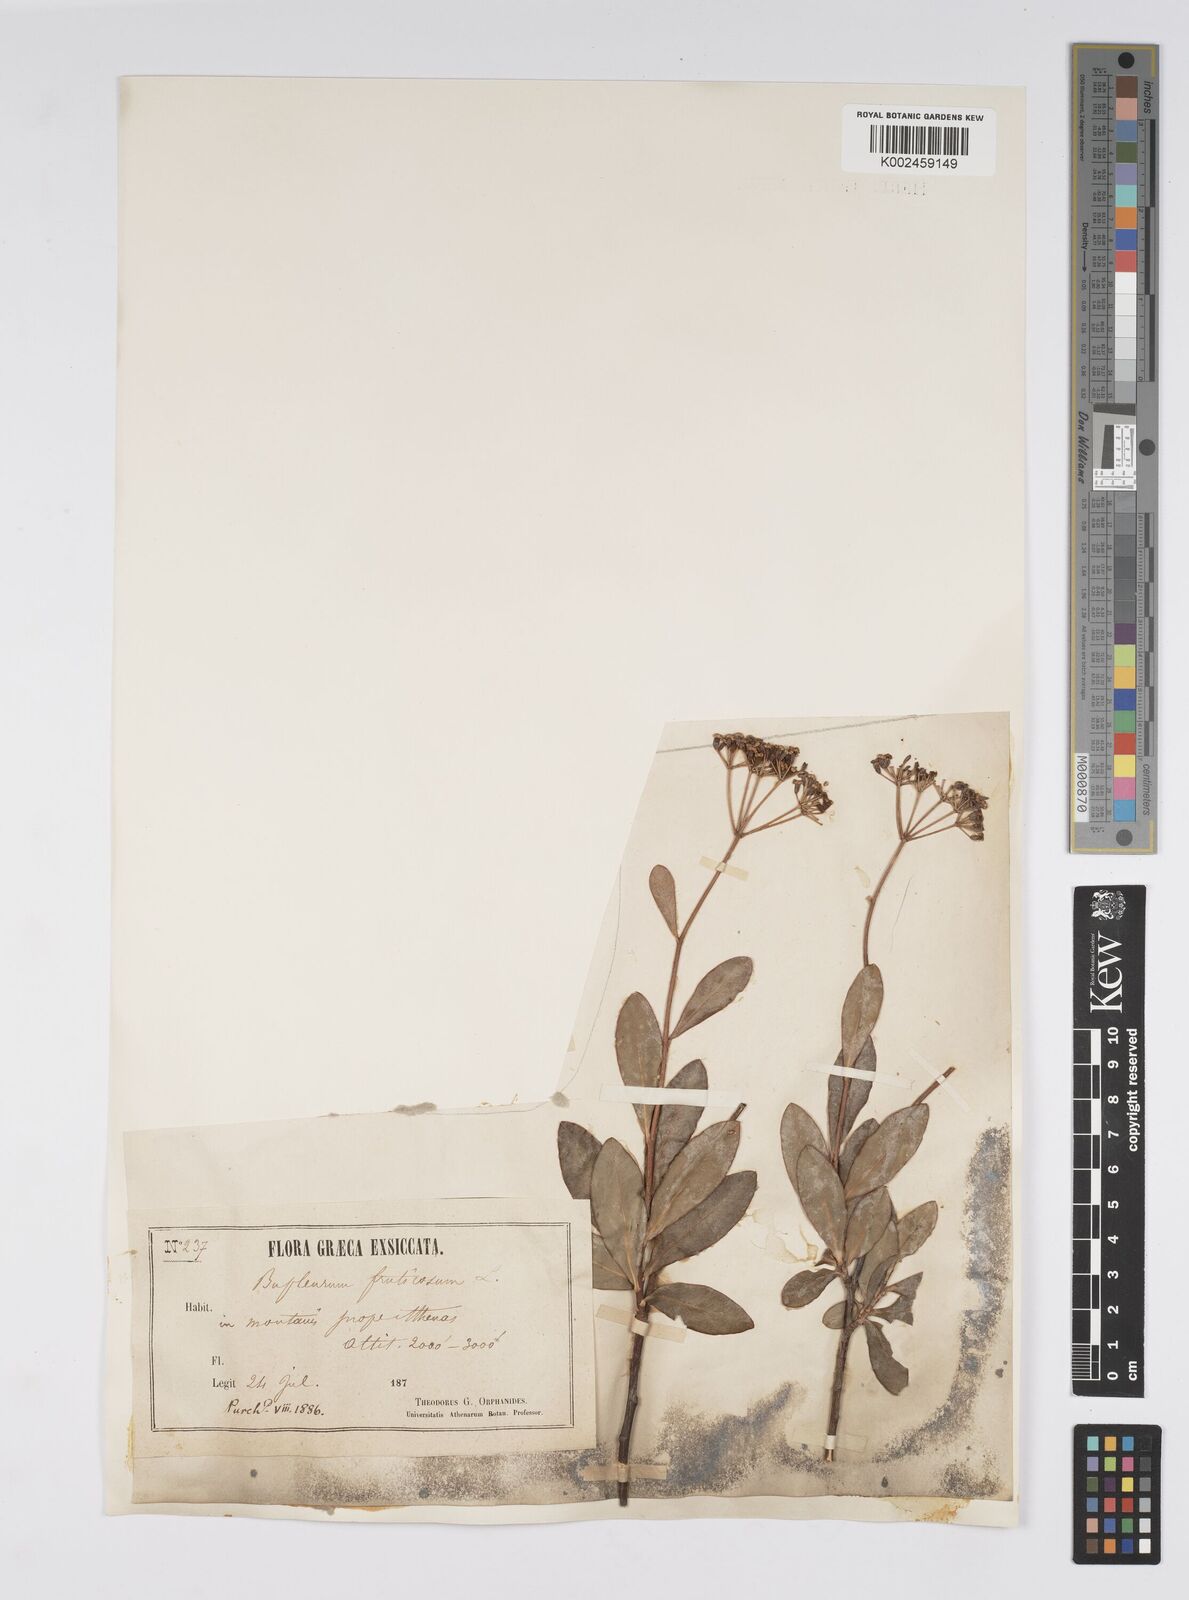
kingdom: Plantae
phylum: Tracheophyta
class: Magnoliopsida
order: Apiales
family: Apiaceae
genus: Bupleurum
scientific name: Bupleurum fruticosum
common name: Shrubby hare's-ear
